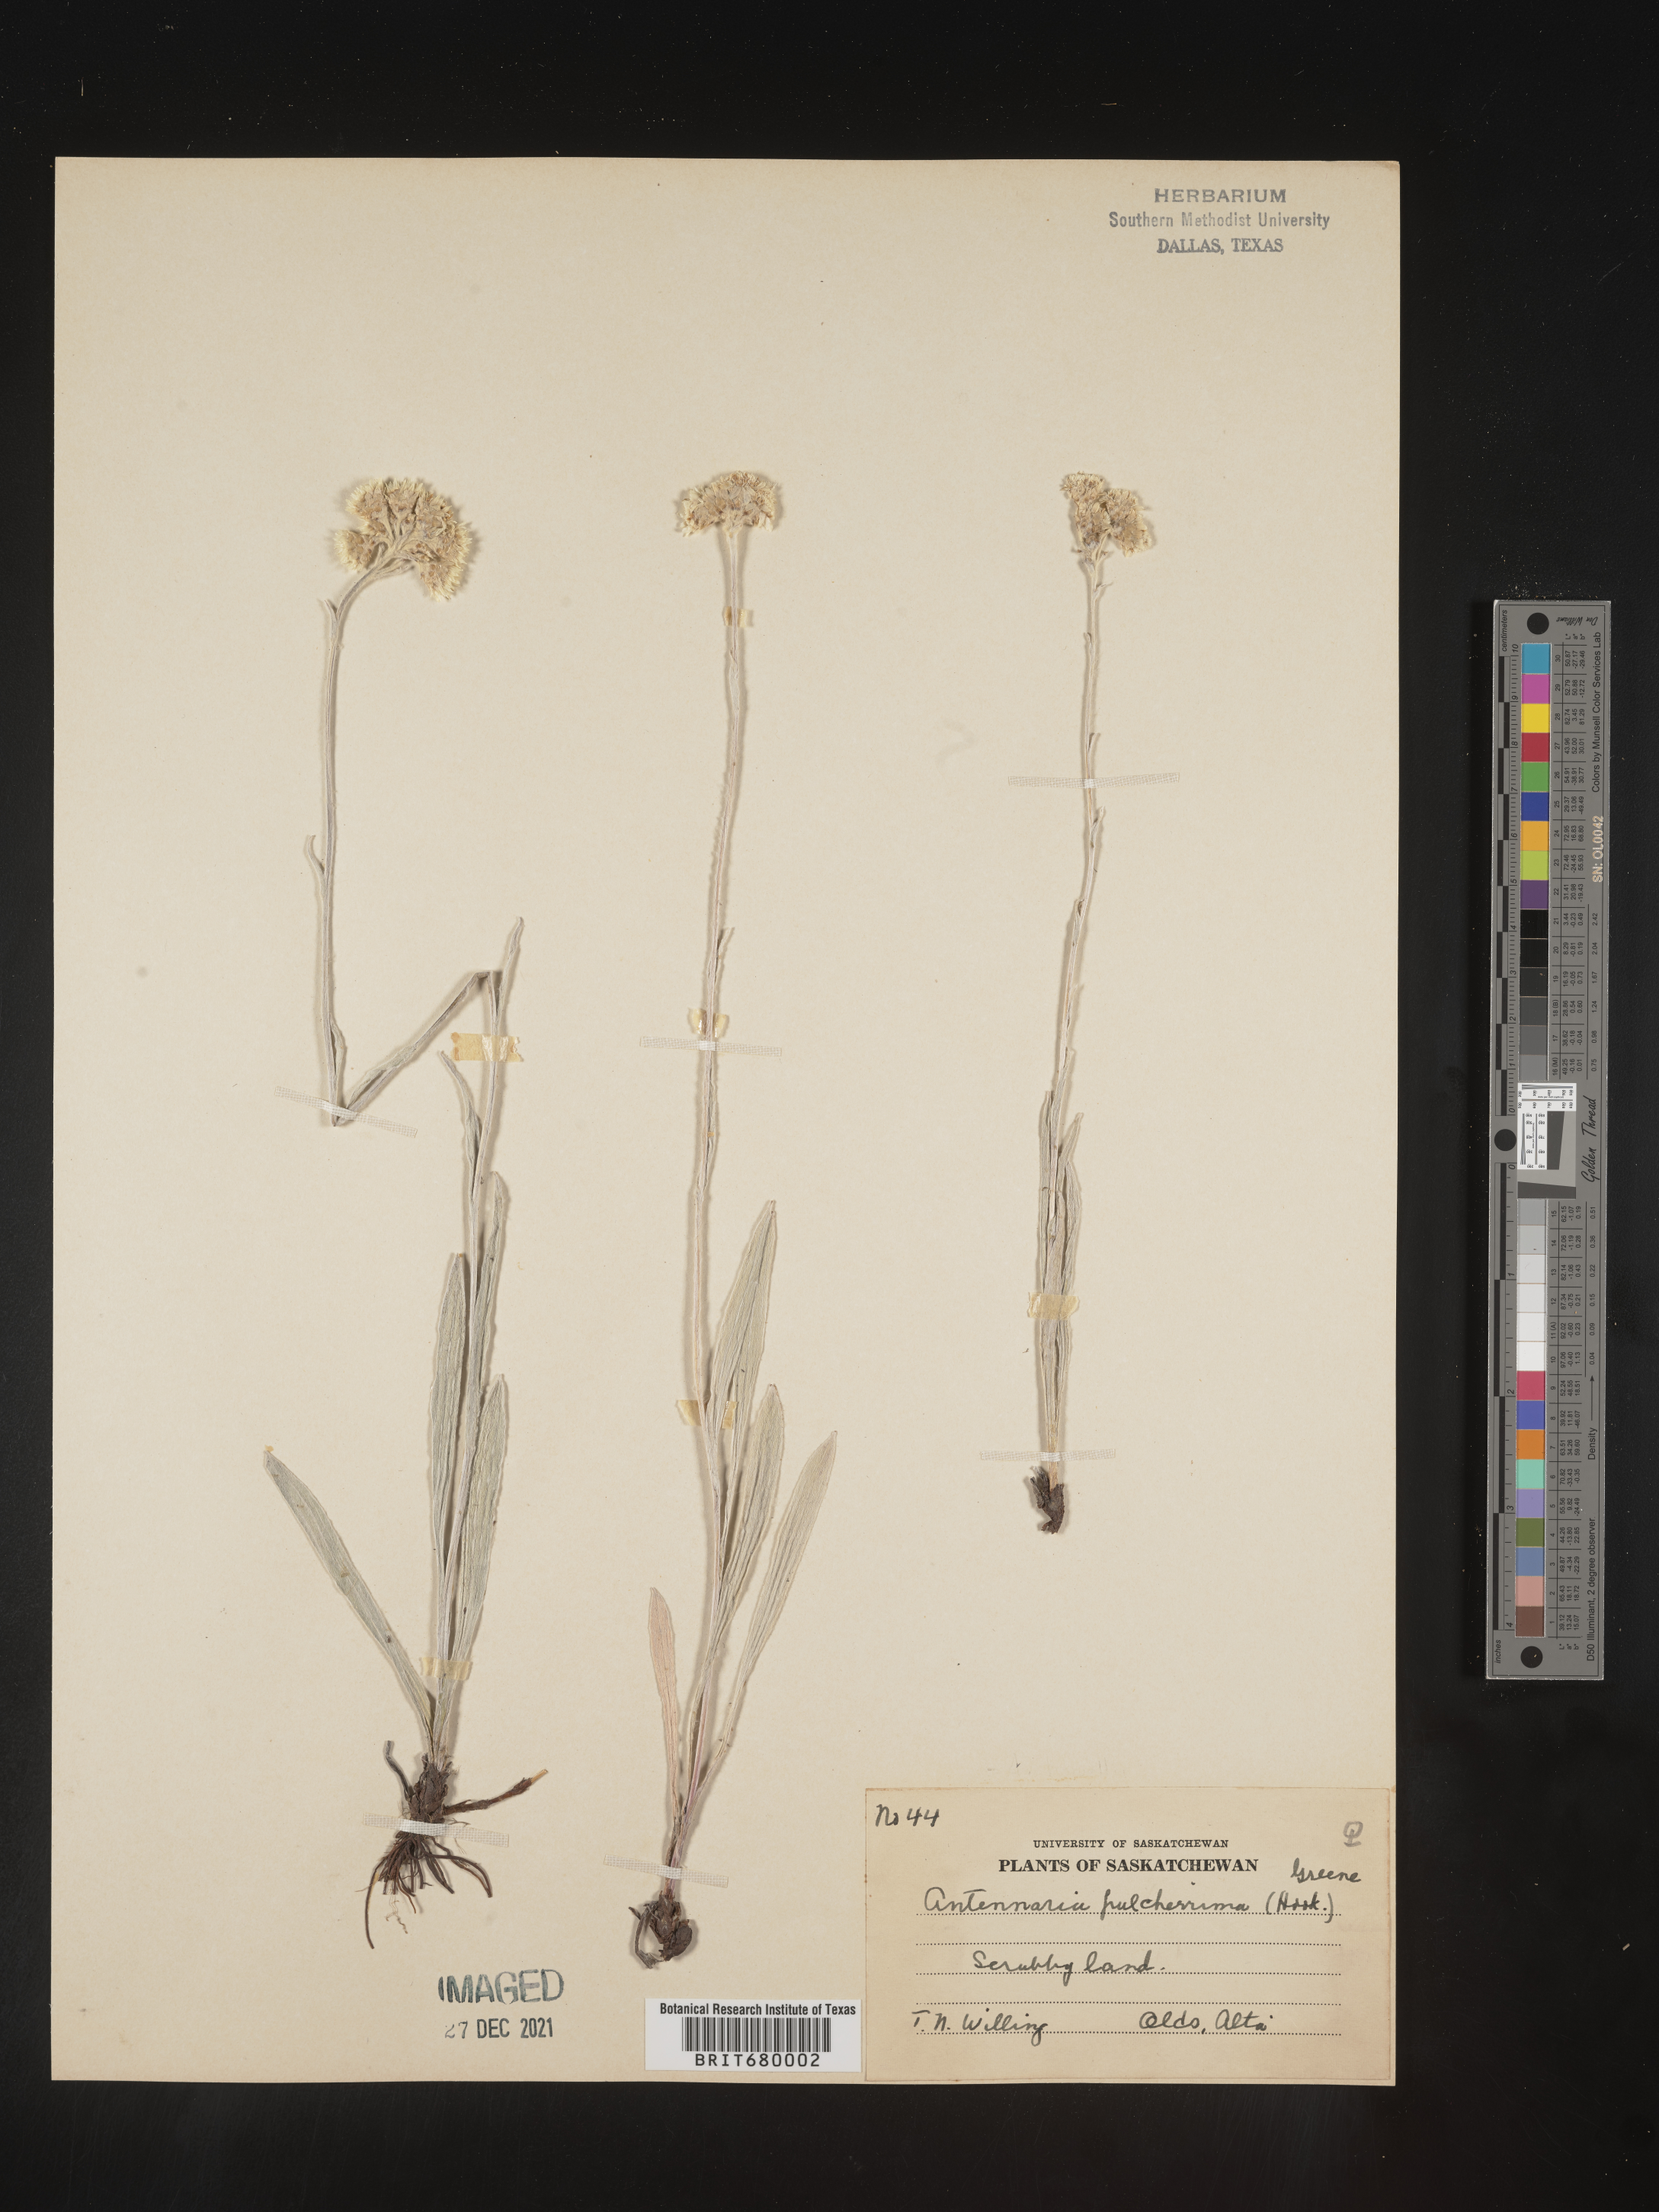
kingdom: Plantae
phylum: Tracheophyta
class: Magnoliopsida
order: Asterales
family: Asteraceae
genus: Antennaria
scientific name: Antennaria pulcherrima
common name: Handsome pussytoes
